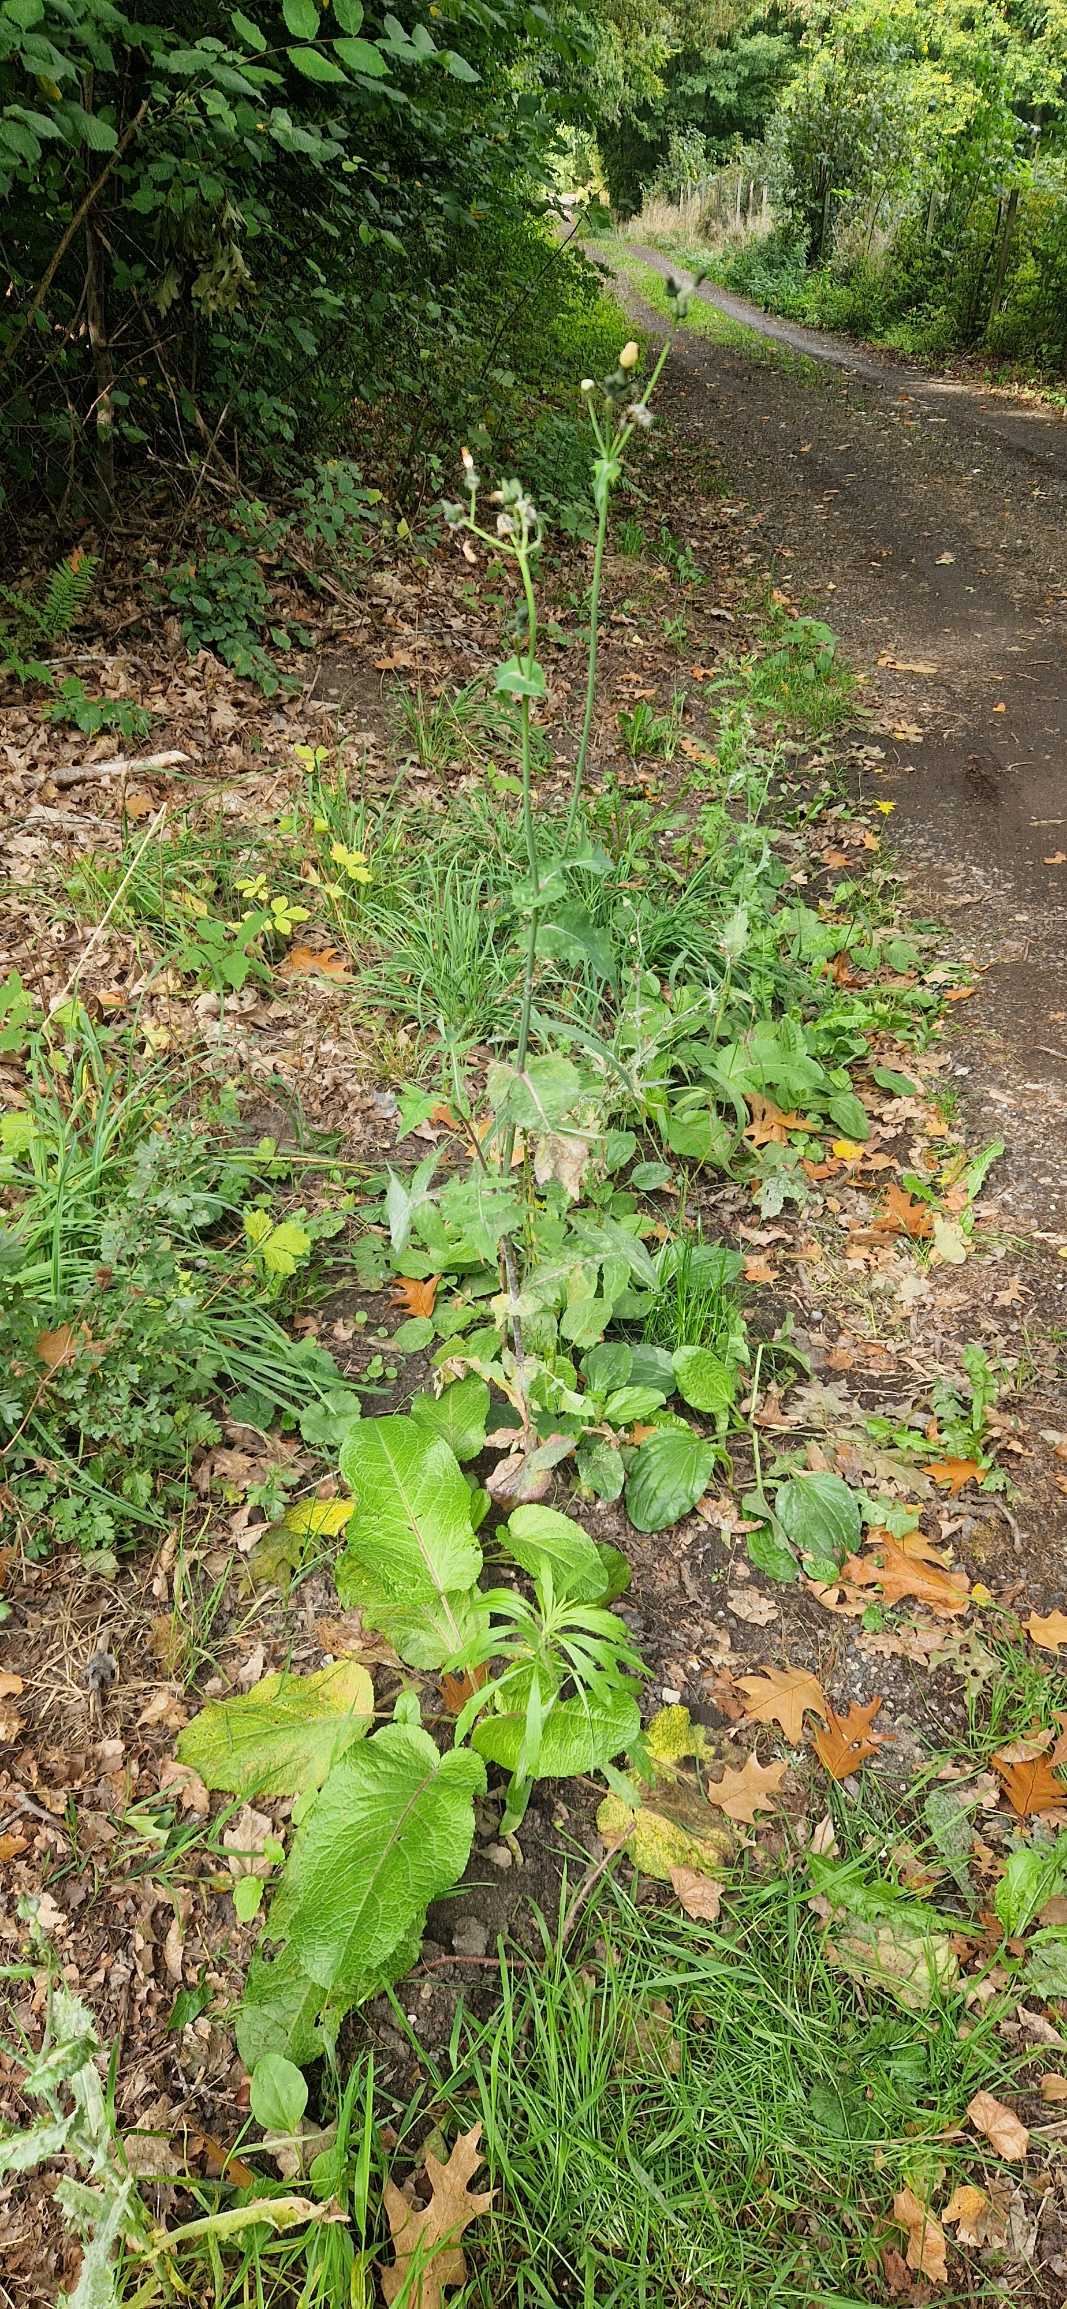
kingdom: Plantae
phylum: Tracheophyta
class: Magnoliopsida
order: Asterales
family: Asteraceae
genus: Sonchus
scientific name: Sonchus oleraceus
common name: Almindelig svinemælk
